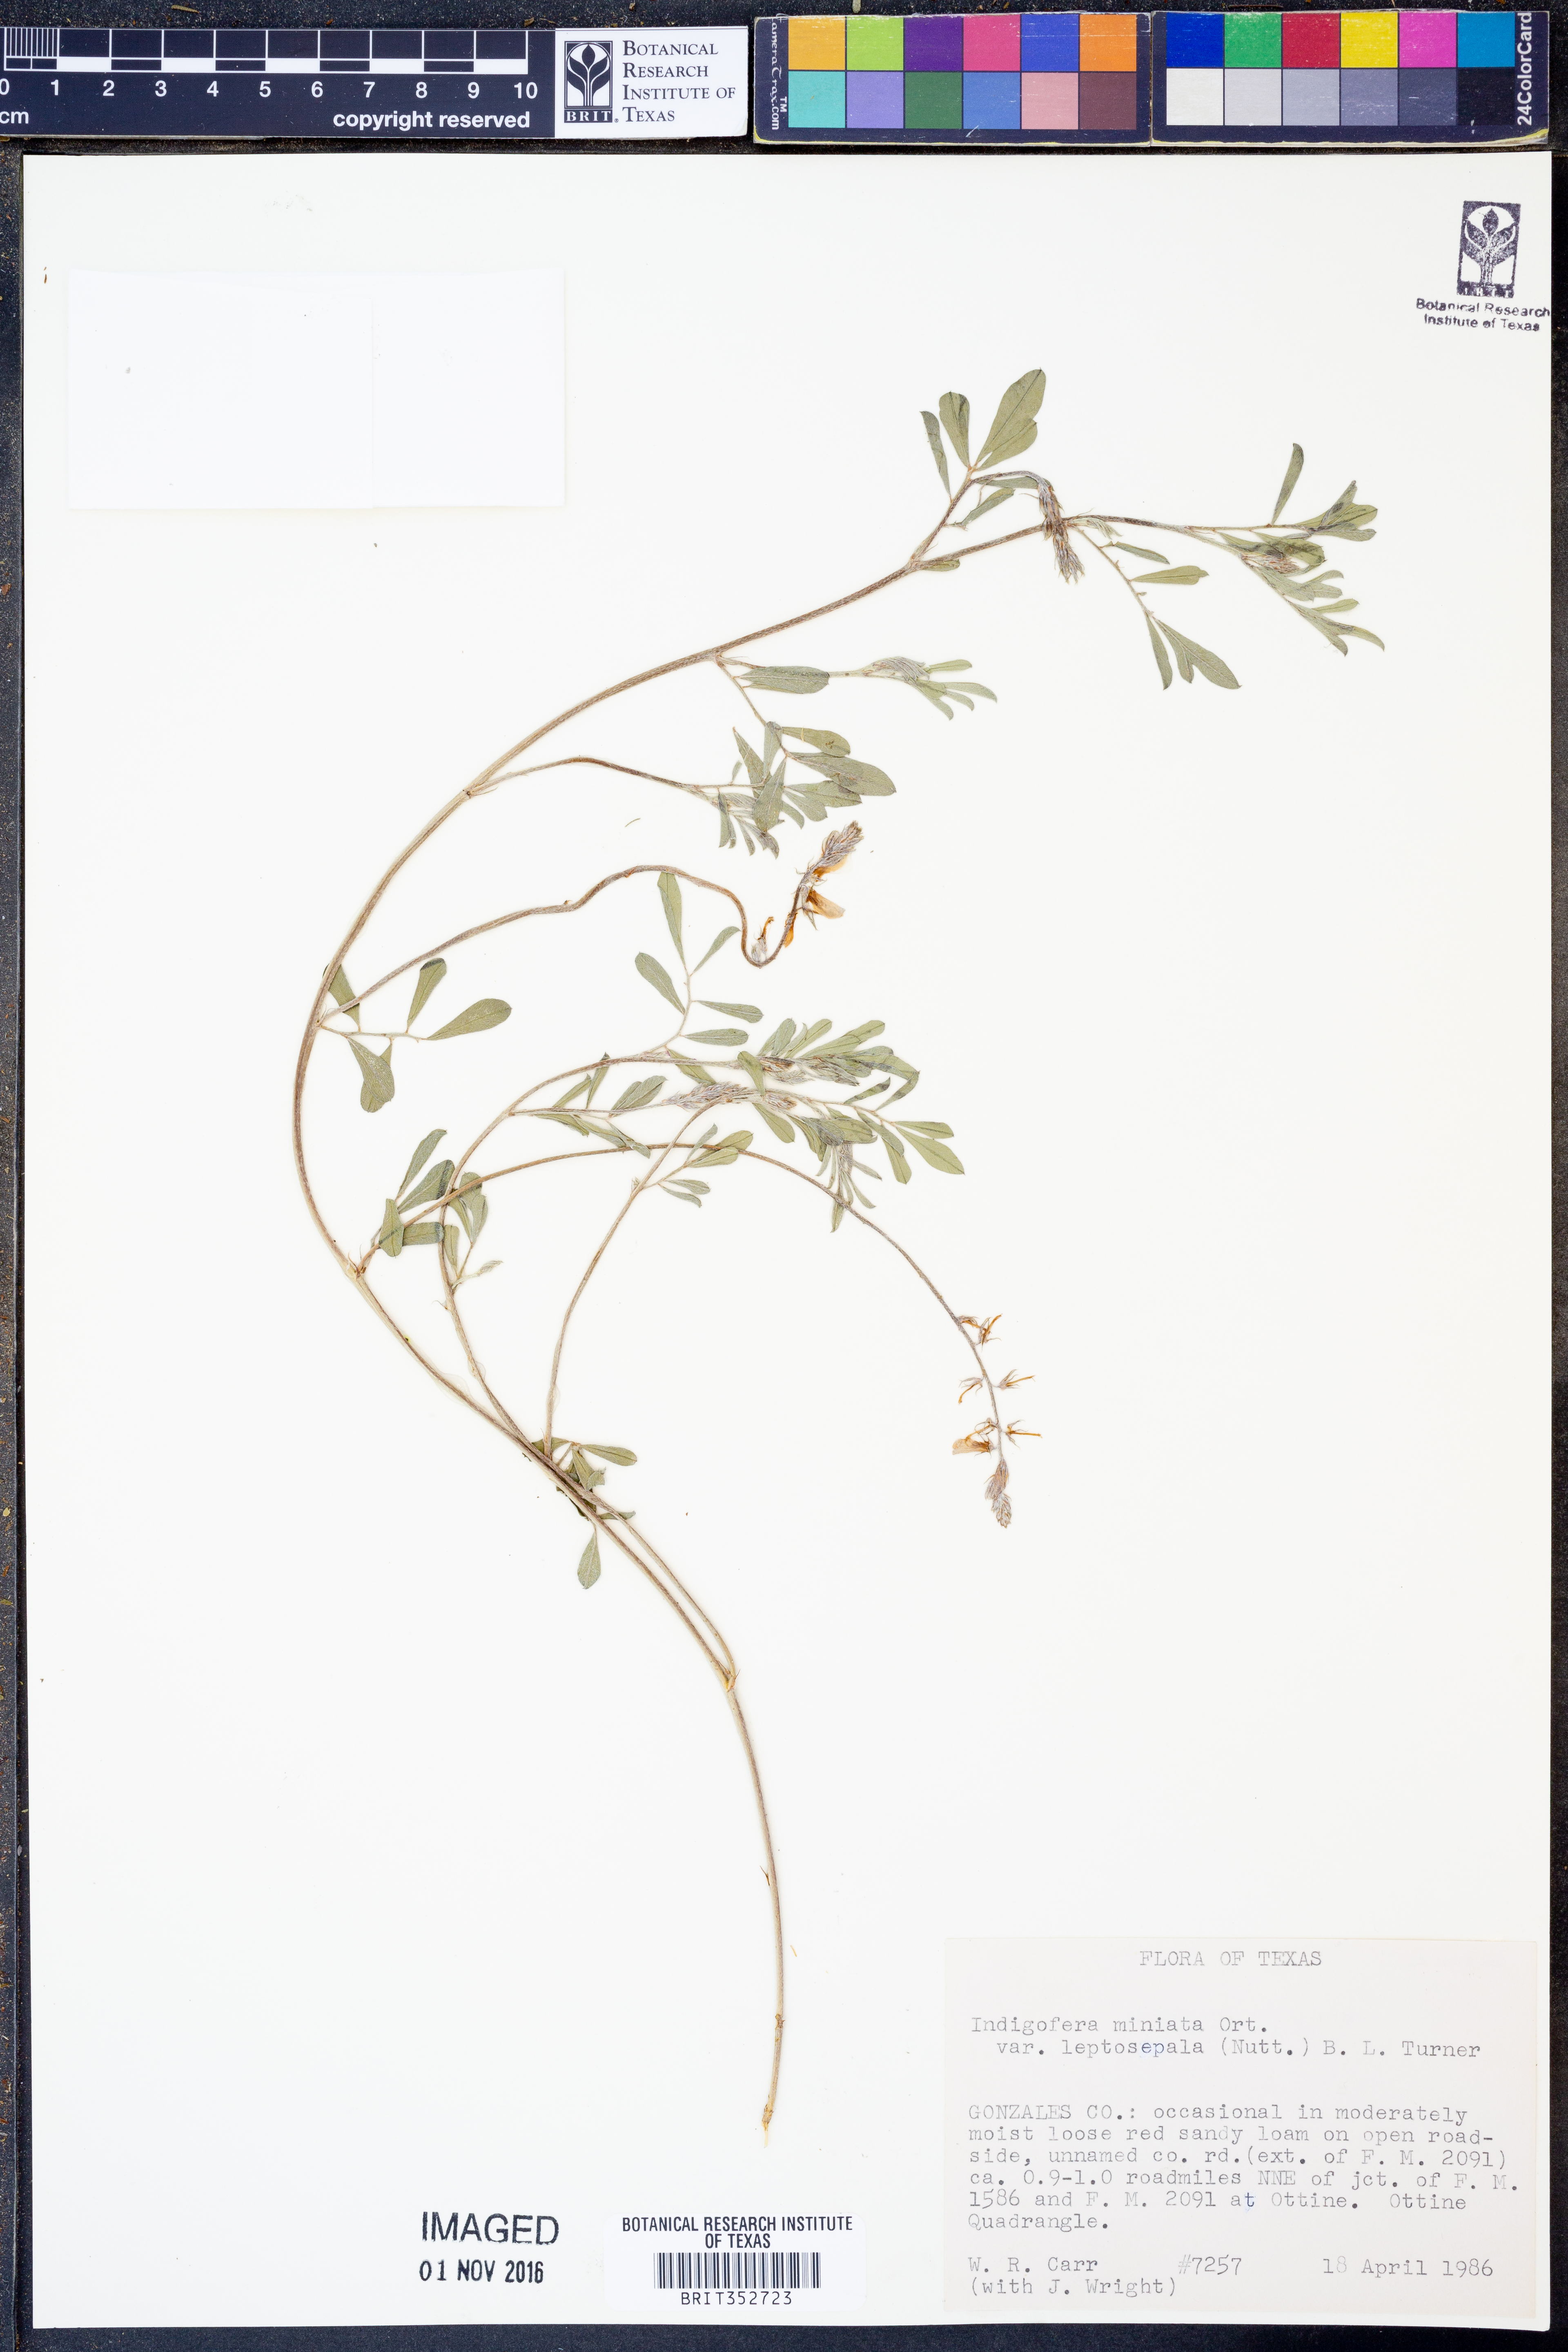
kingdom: Plantae
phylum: Tracheophyta
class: Magnoliopsida
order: Fabales
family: Fabaceae
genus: Indigofera
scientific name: Indigofera miniata
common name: Coast indigo
